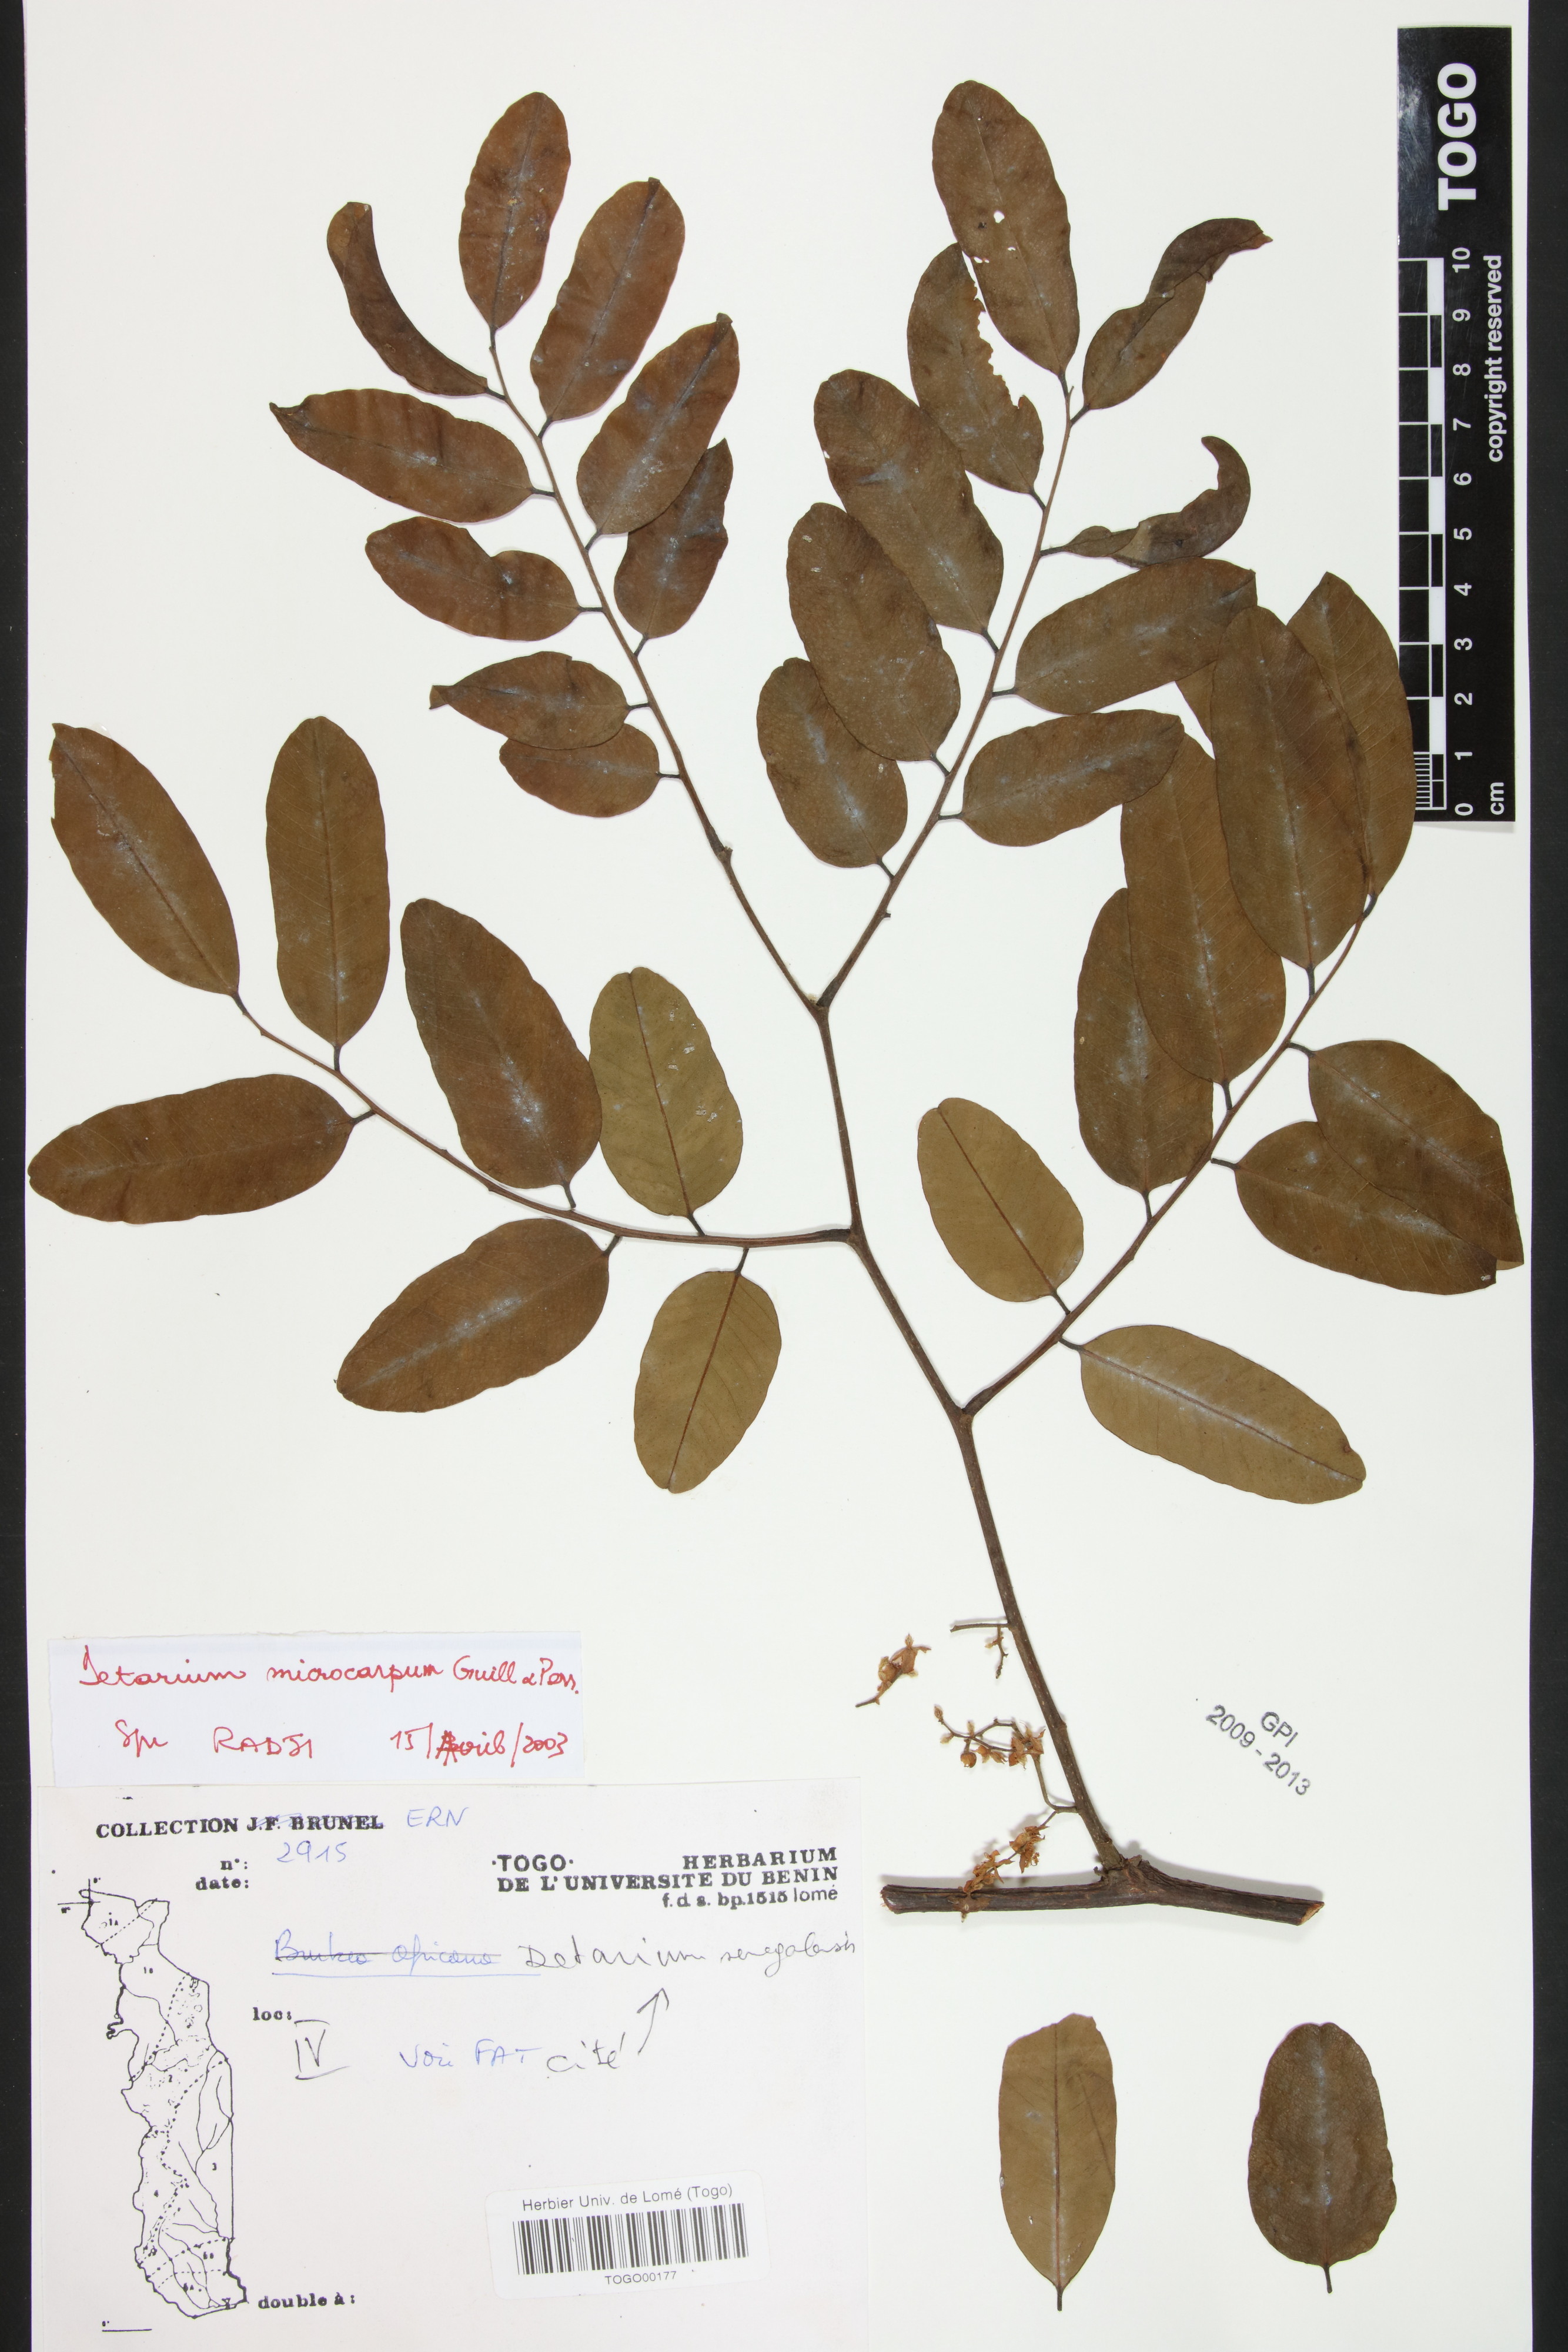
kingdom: Plantae
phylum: Tracheophyta
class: Magnoliopsida
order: Fabales
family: Fabaceae
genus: Detarium
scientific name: Detarium microcarpum
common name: Sweet dattock
